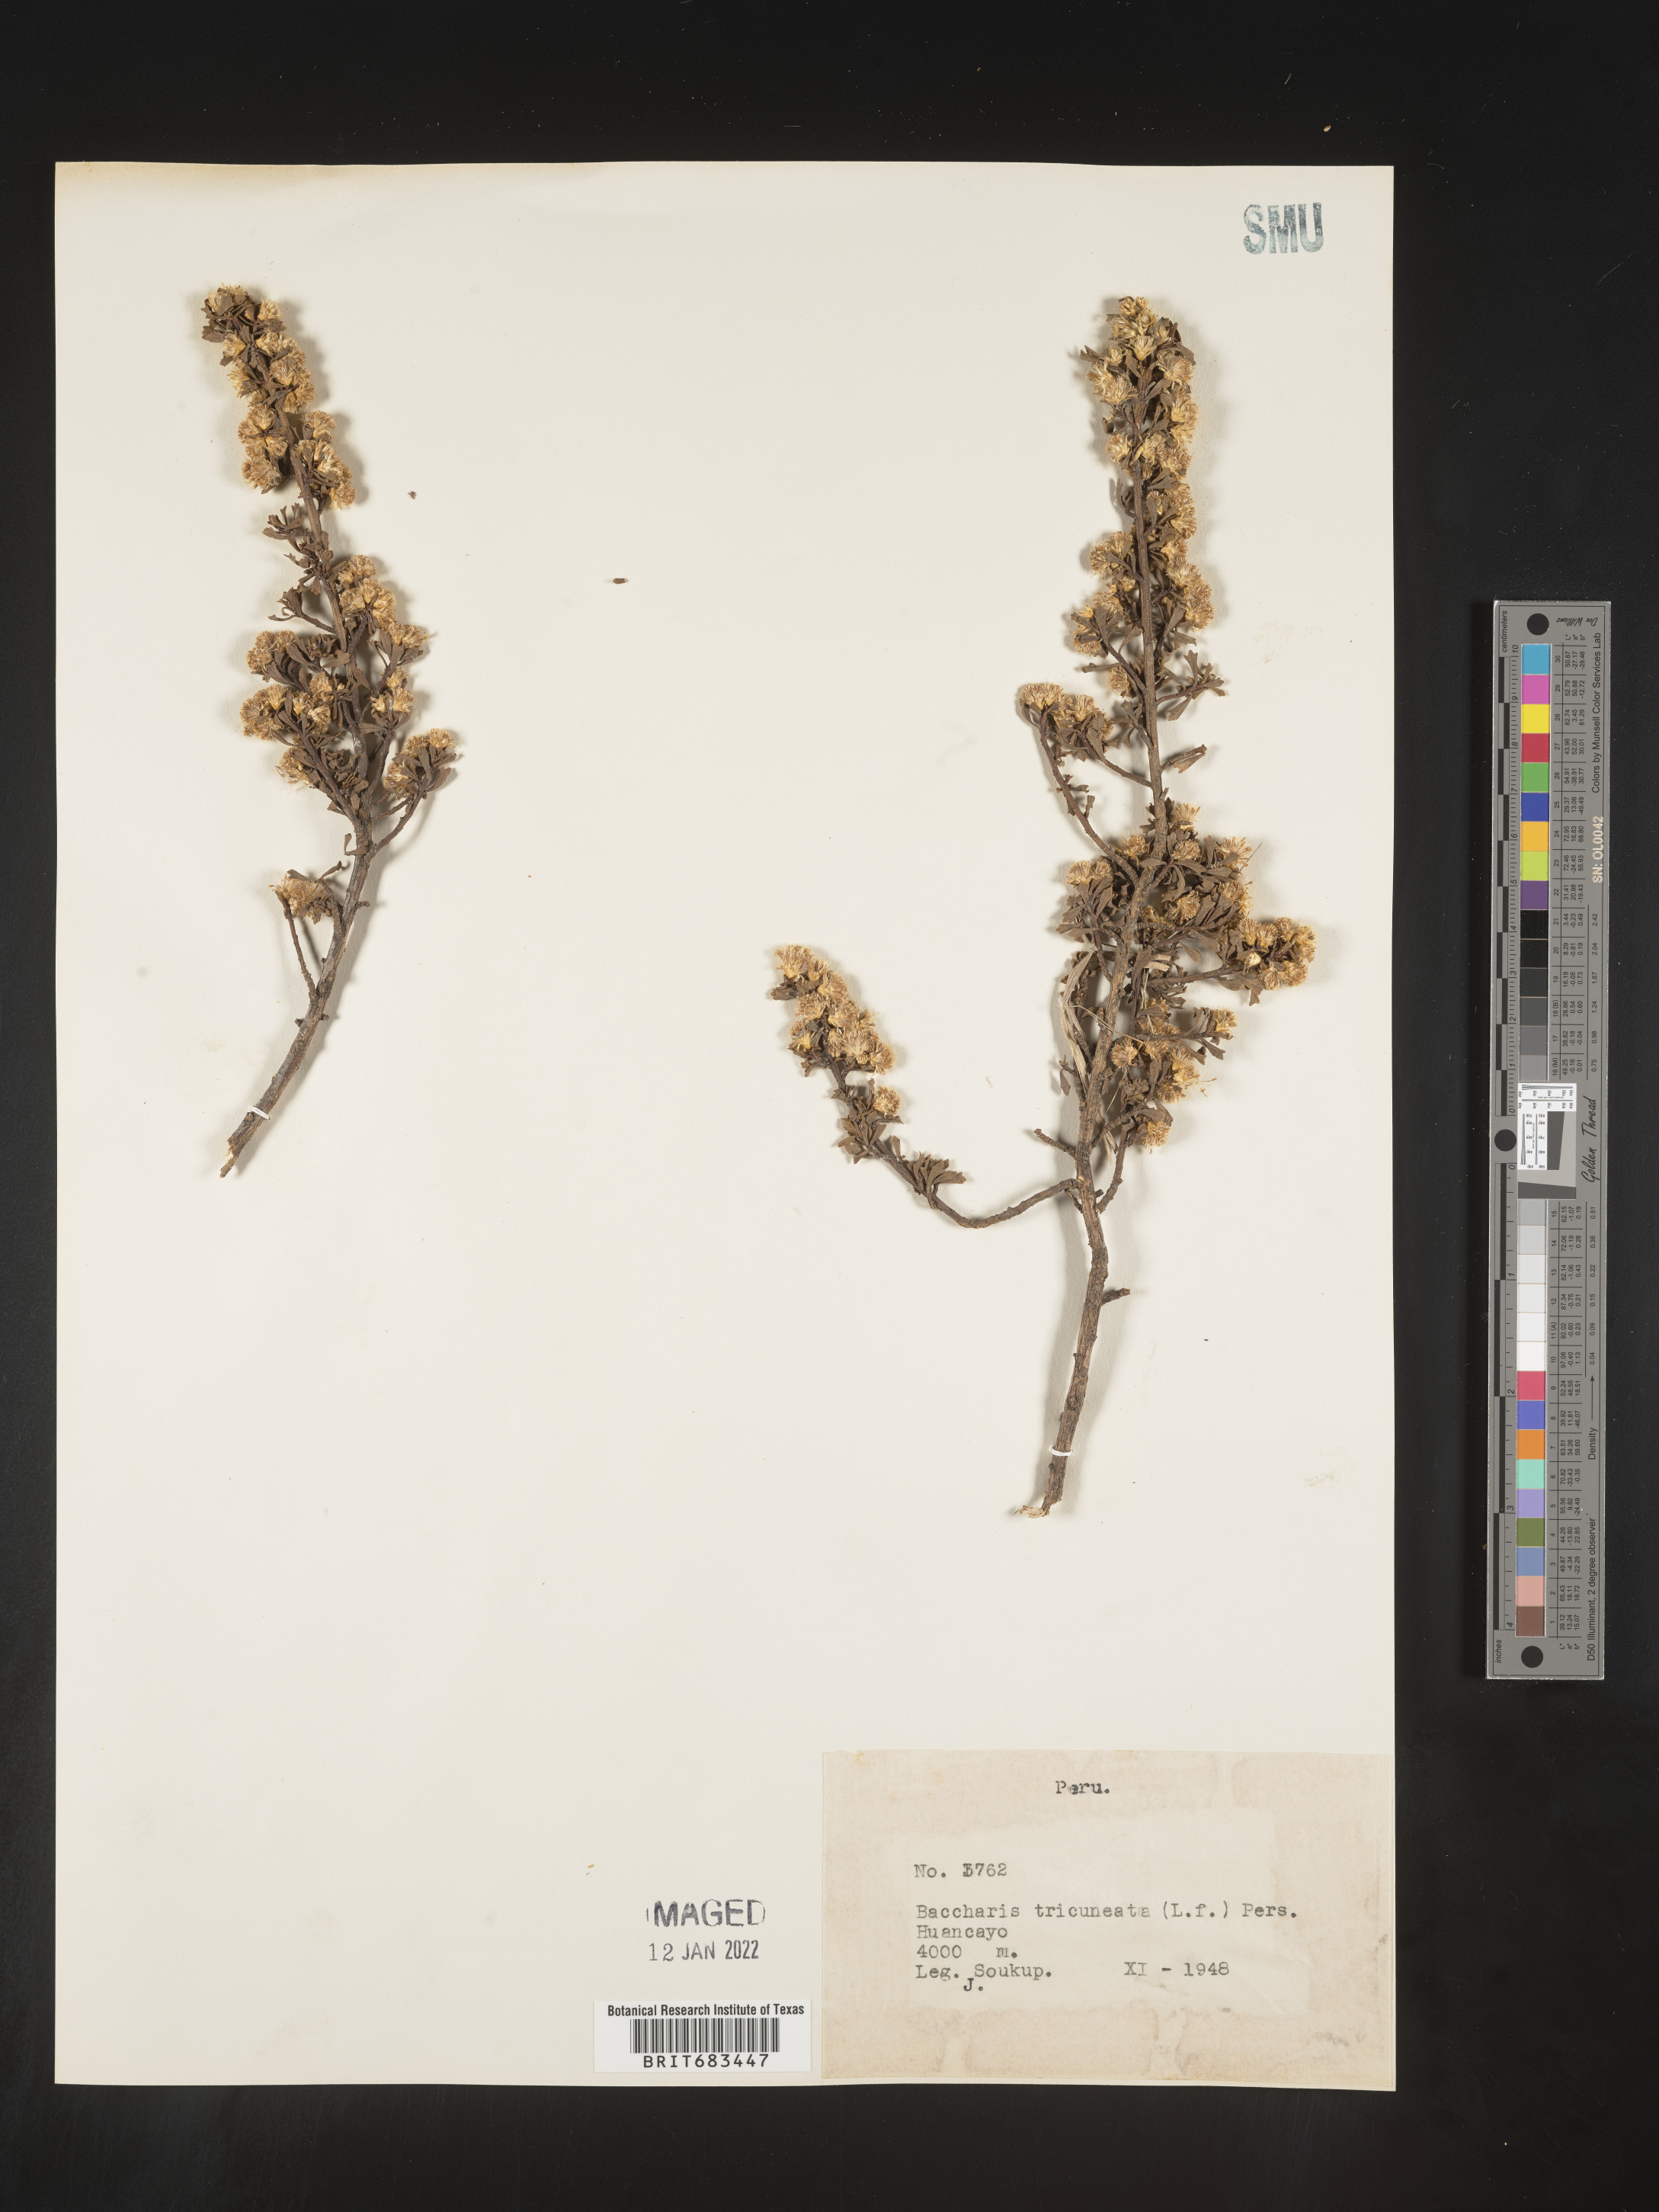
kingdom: Plantae
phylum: Tracheophyta
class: Magnoliopsida
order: Asterales
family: Asteraceae
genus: Baccharis
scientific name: Baccharis
